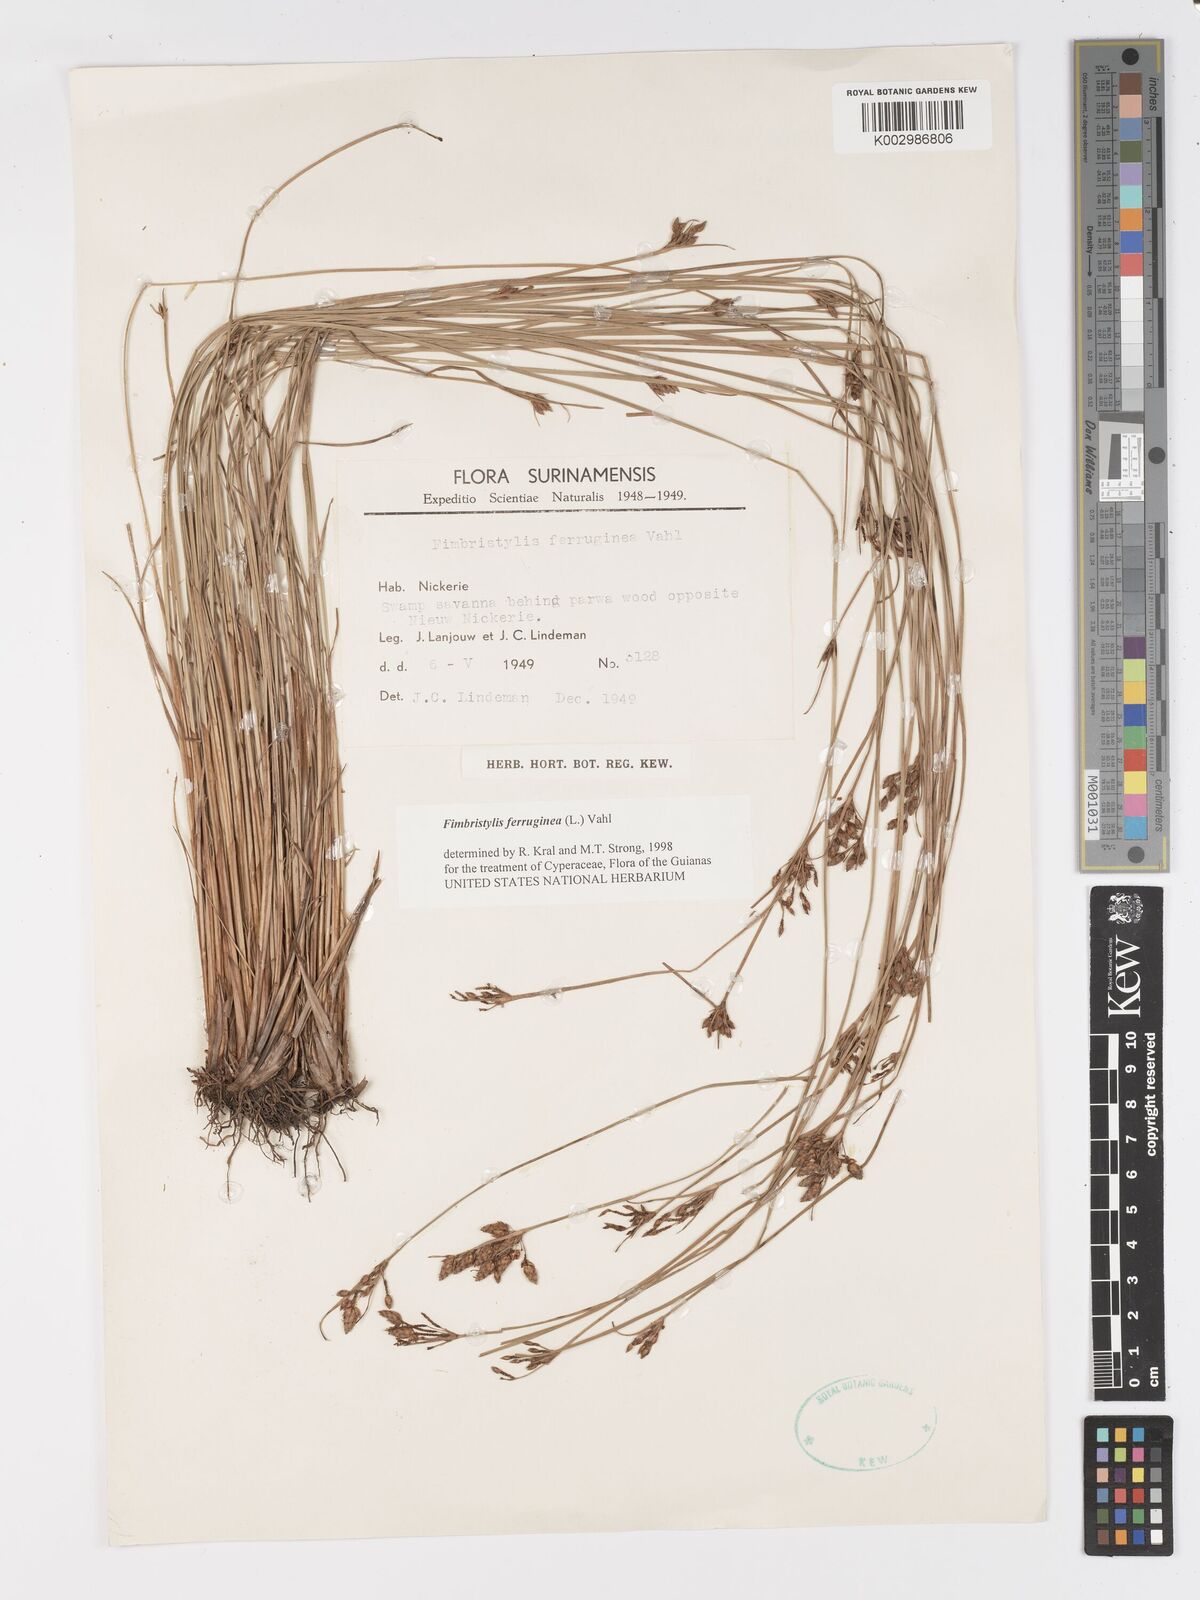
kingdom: Plantae
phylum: Tracheophyta
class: Liliopsida
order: Poales
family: Cyperaceae
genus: Fimbristylis
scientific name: Fimbristylis ferruginea
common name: West indian fimbry
